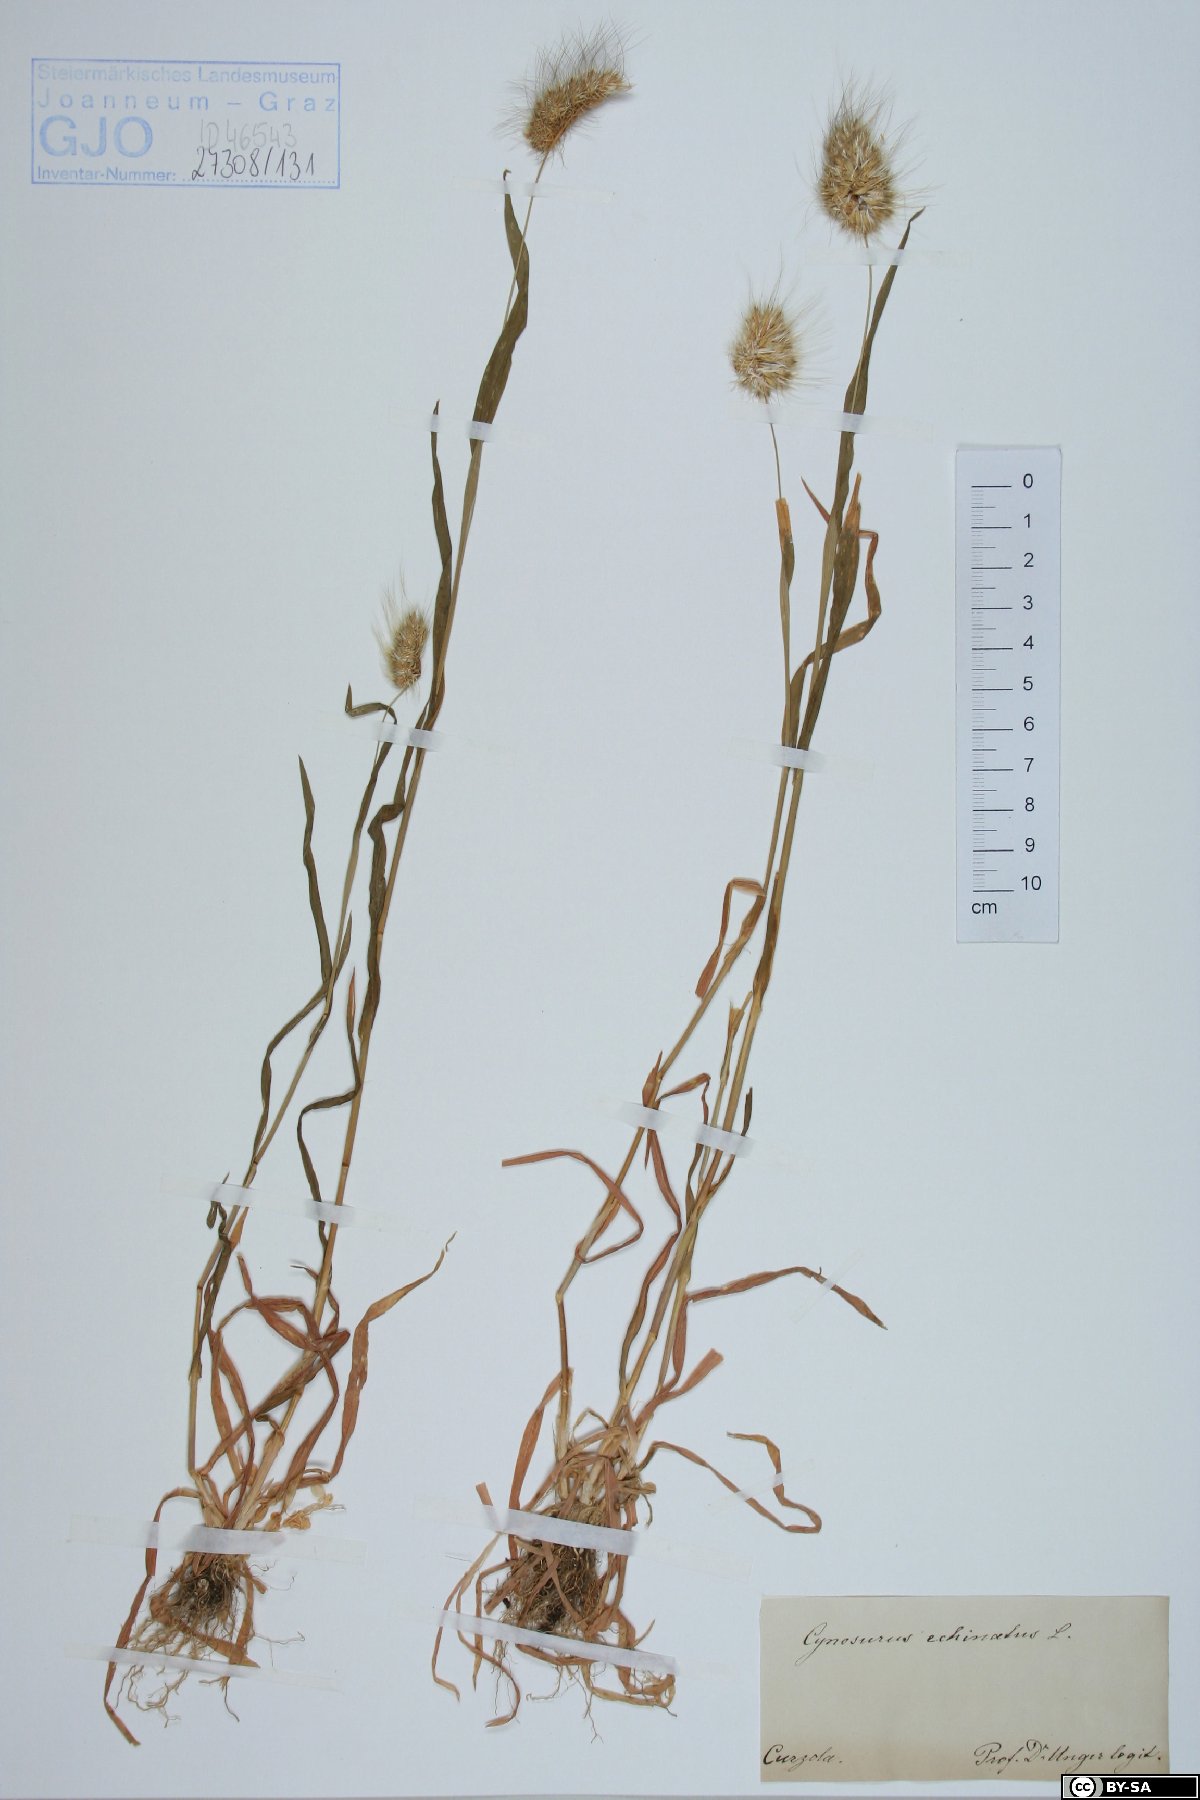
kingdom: Plantae
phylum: Tracheophyta
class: Liliopsida
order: Poales
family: Poaceae
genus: Cynosurus
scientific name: Cynosurus echinatus
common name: Rough dog's-tail
